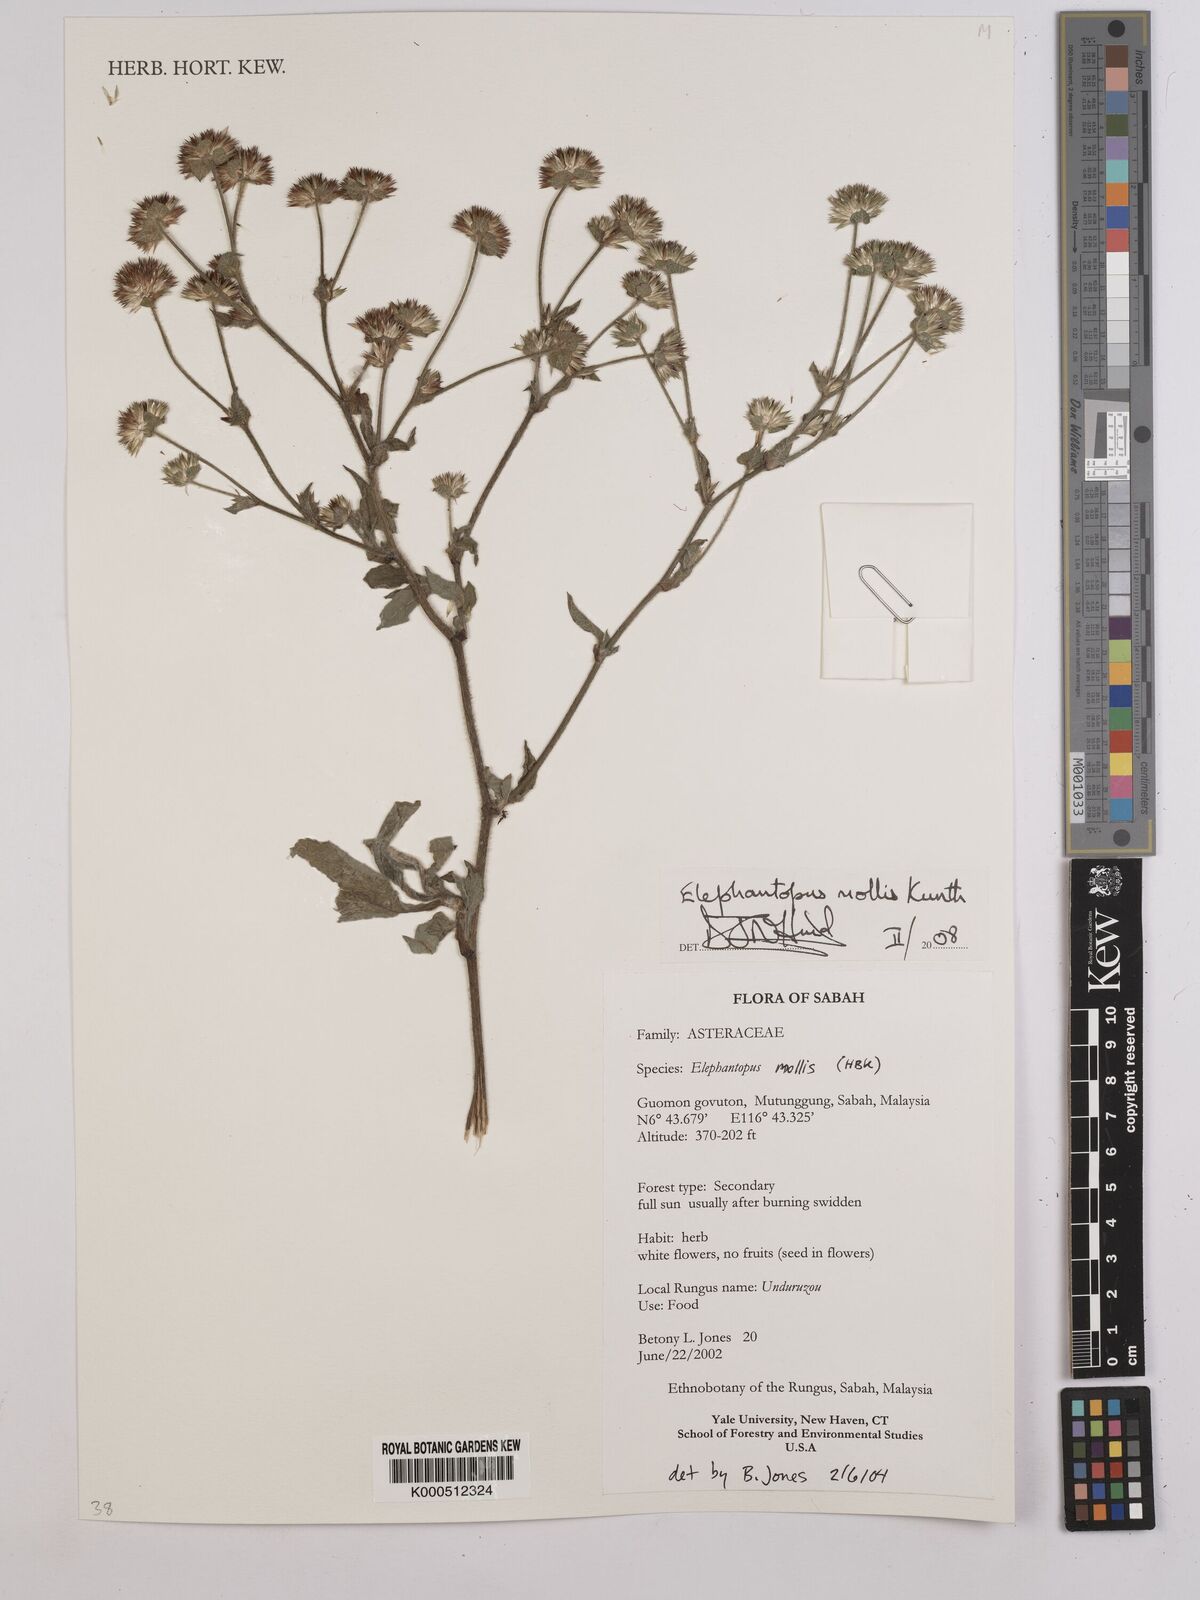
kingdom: Plantae
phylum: Tracheophyta
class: Magnoliopsida
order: Asterales
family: Asteraceae
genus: Elephantopus
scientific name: Elephantopus mollis
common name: Soft elephantsfoot
